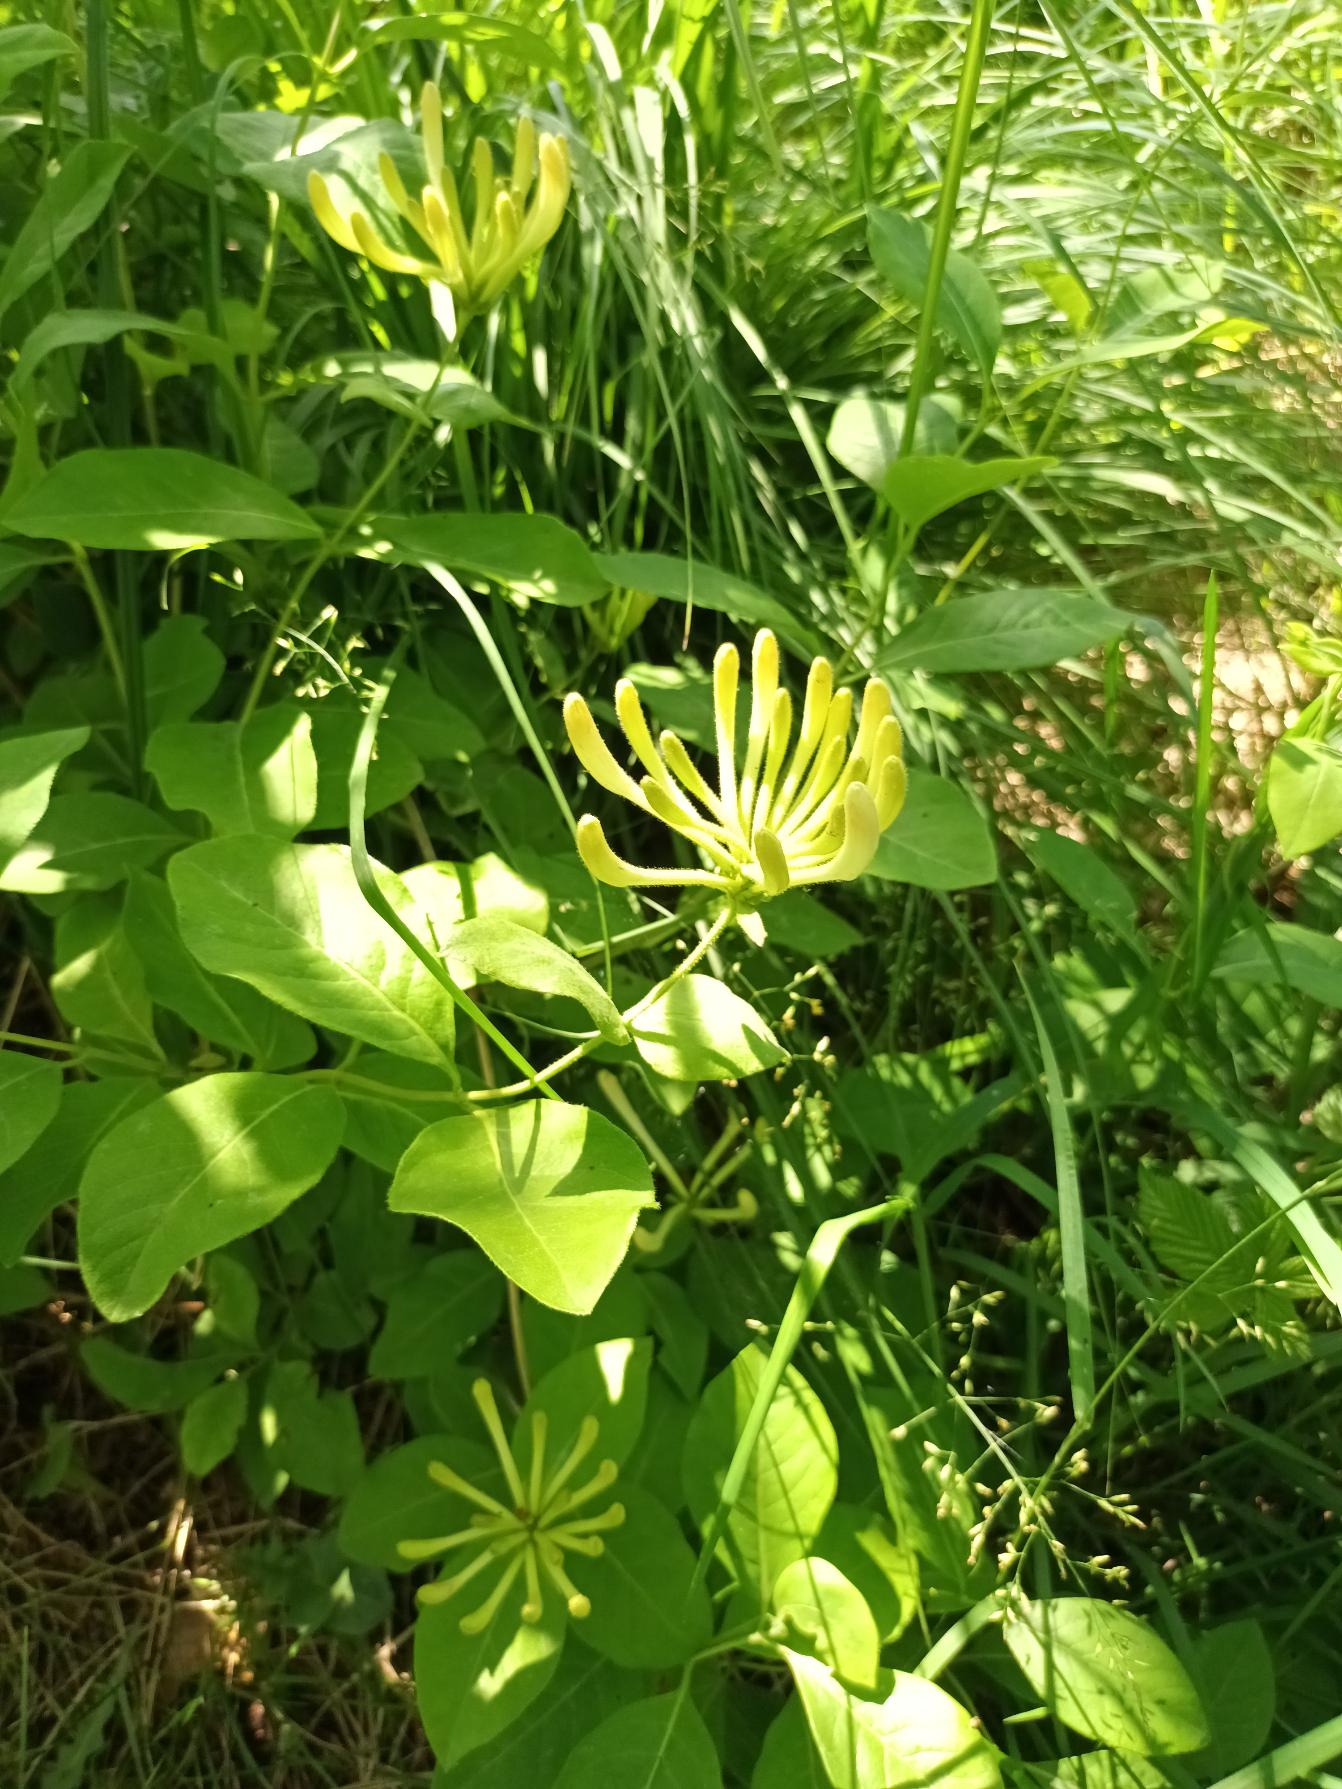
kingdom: Plantae
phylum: Tracheophyta
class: Magnoliopsida
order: Dipsacales
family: Caprifoliaceae
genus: Lonicera
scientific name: Lonicera periclymenum
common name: Almindelig gedeblad
